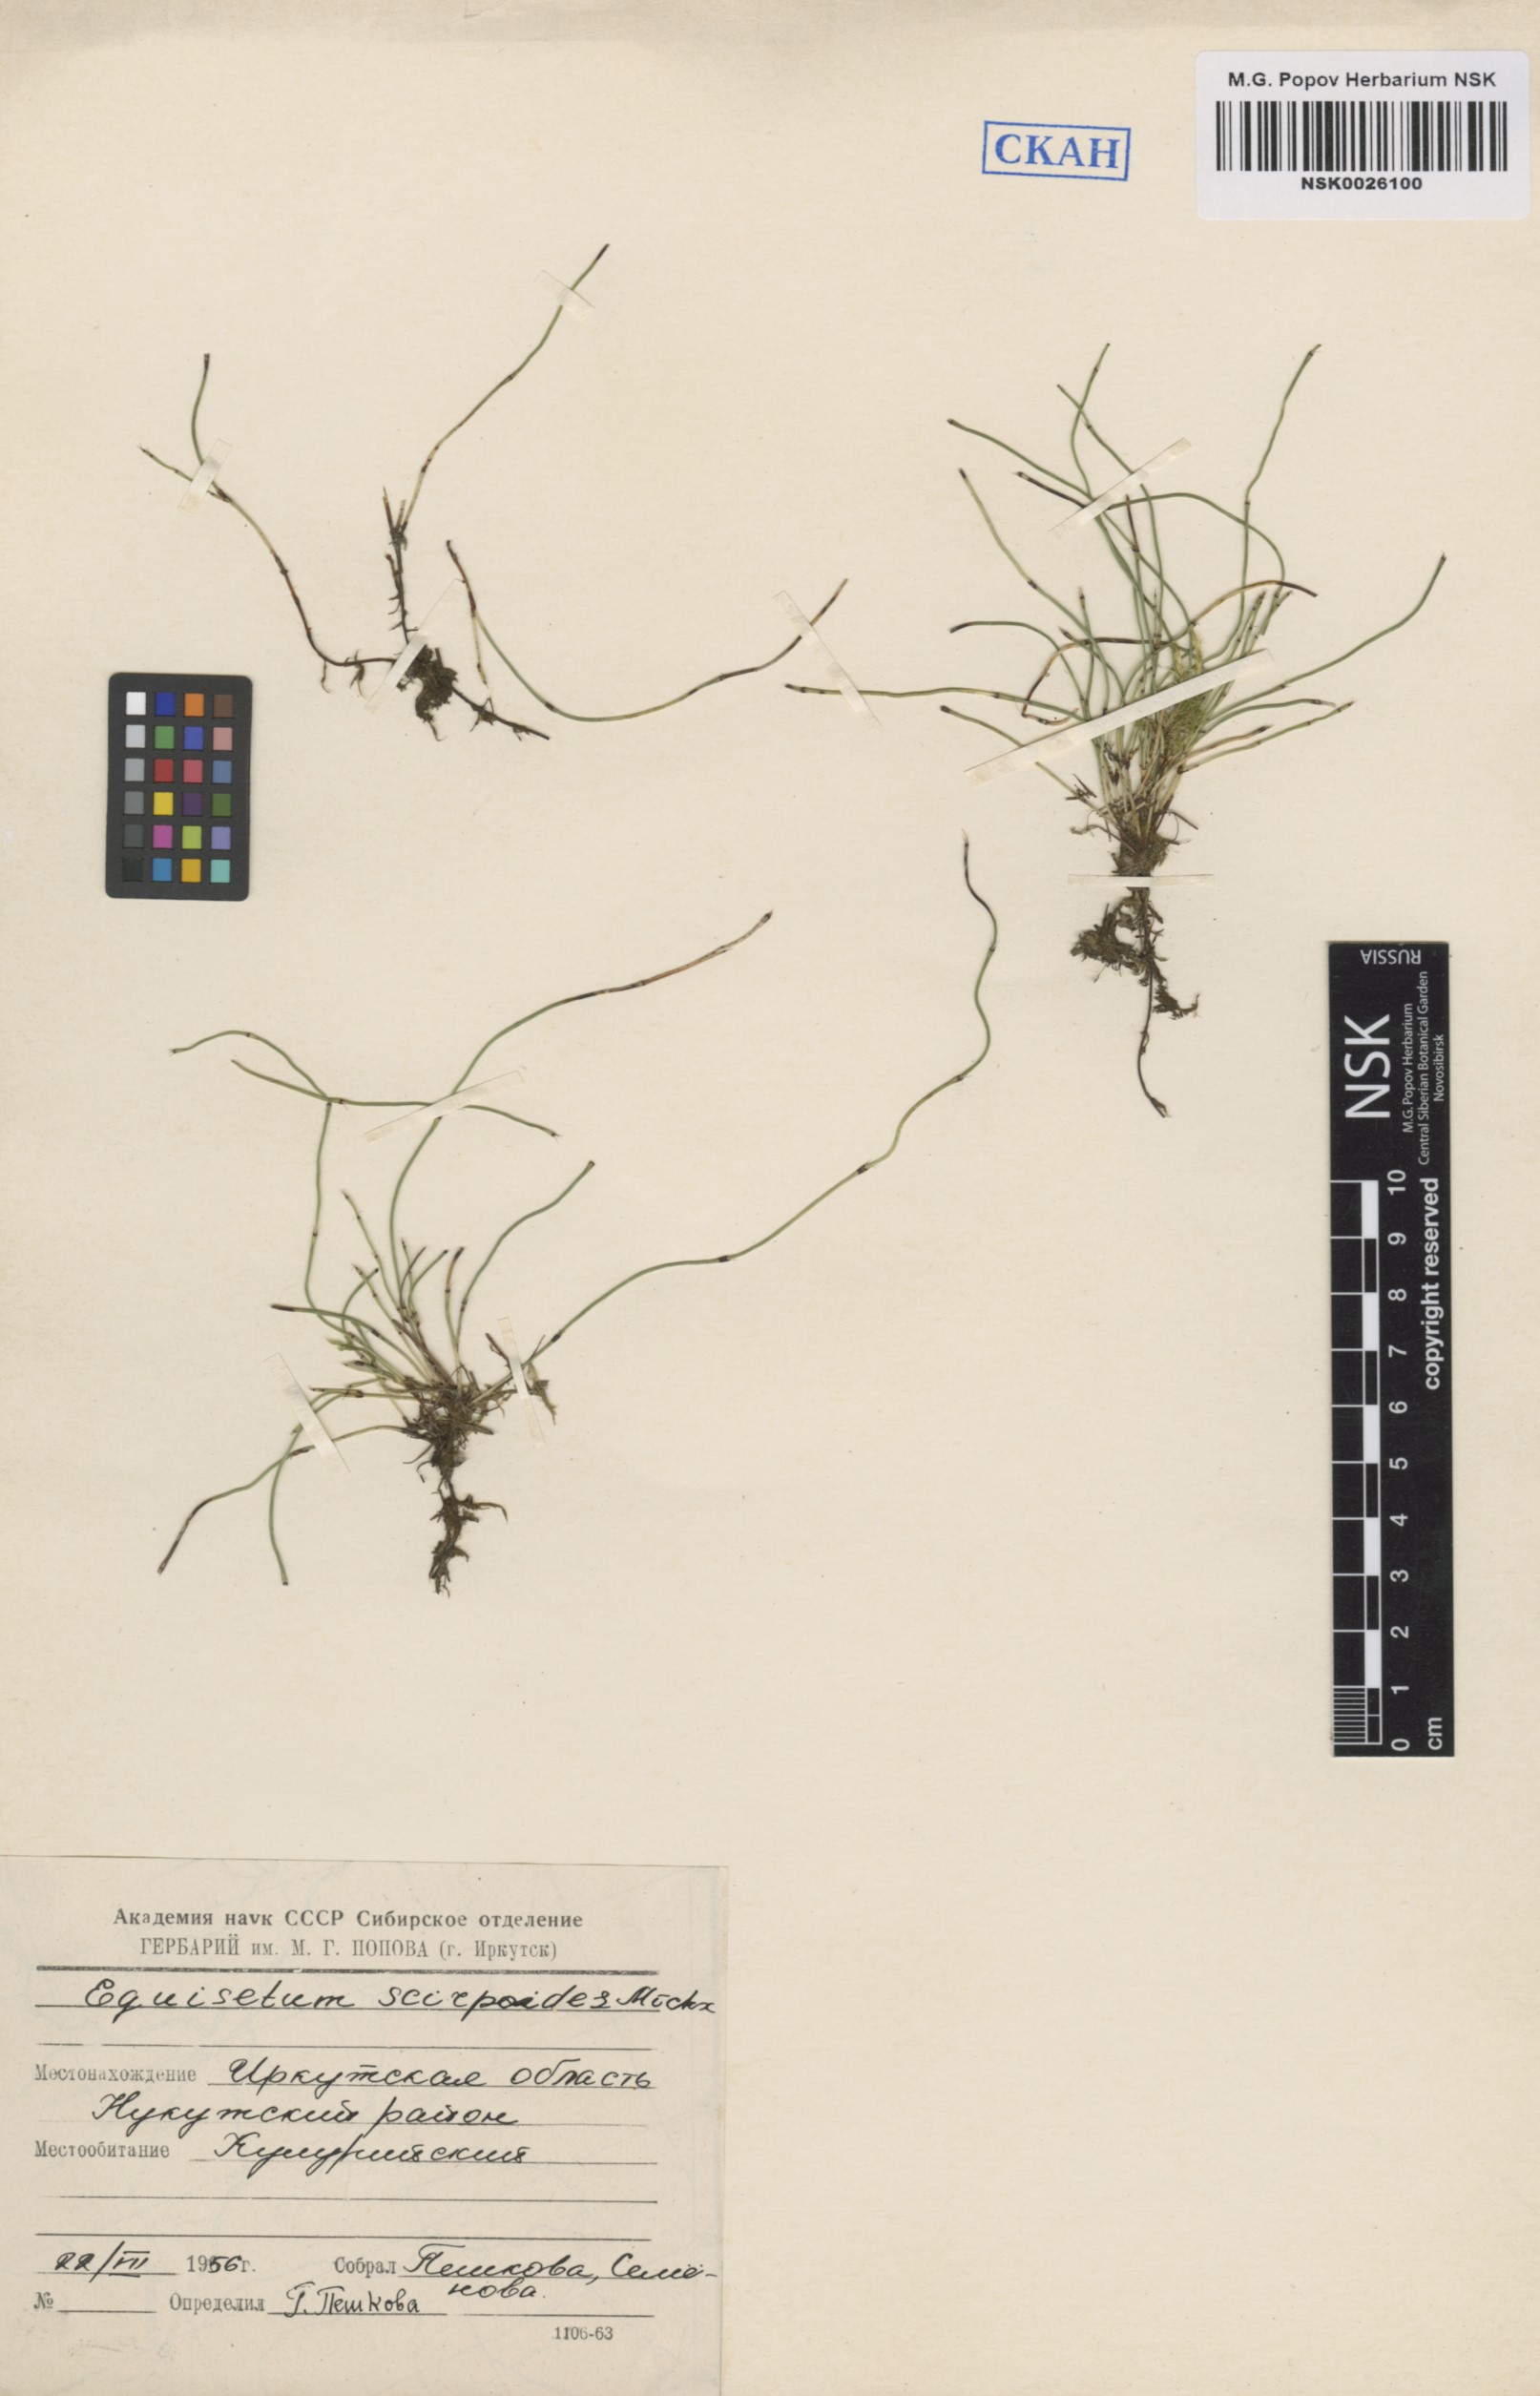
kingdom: Plantae
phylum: Tracheophyta
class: Polypodiopsida
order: Equisetales
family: Equisetaceae
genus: Equisetum
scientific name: Equisetum scirpoides
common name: Delicate horsetail
